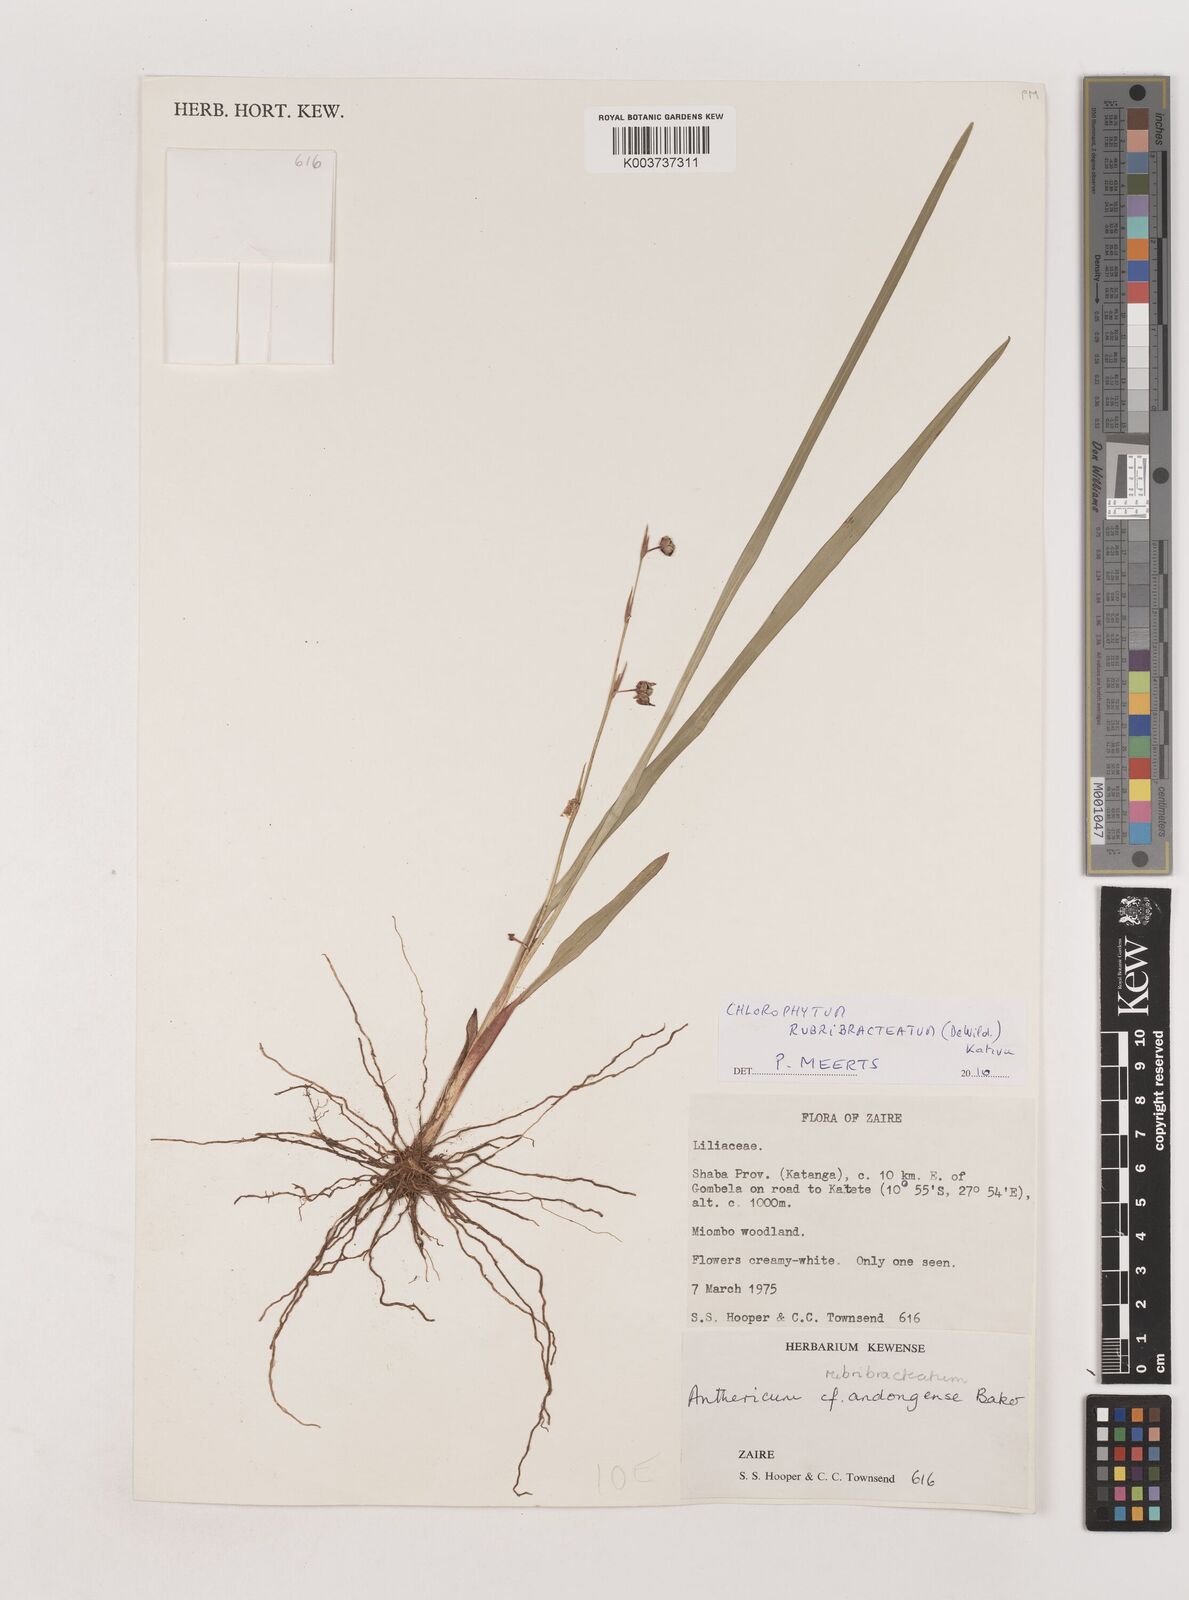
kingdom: Plantae
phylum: Tracheophyta
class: Liliopsida
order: Asparagales
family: Asparagaceae
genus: Chlorophytum
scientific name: Chlorophytum rubribracteatum
